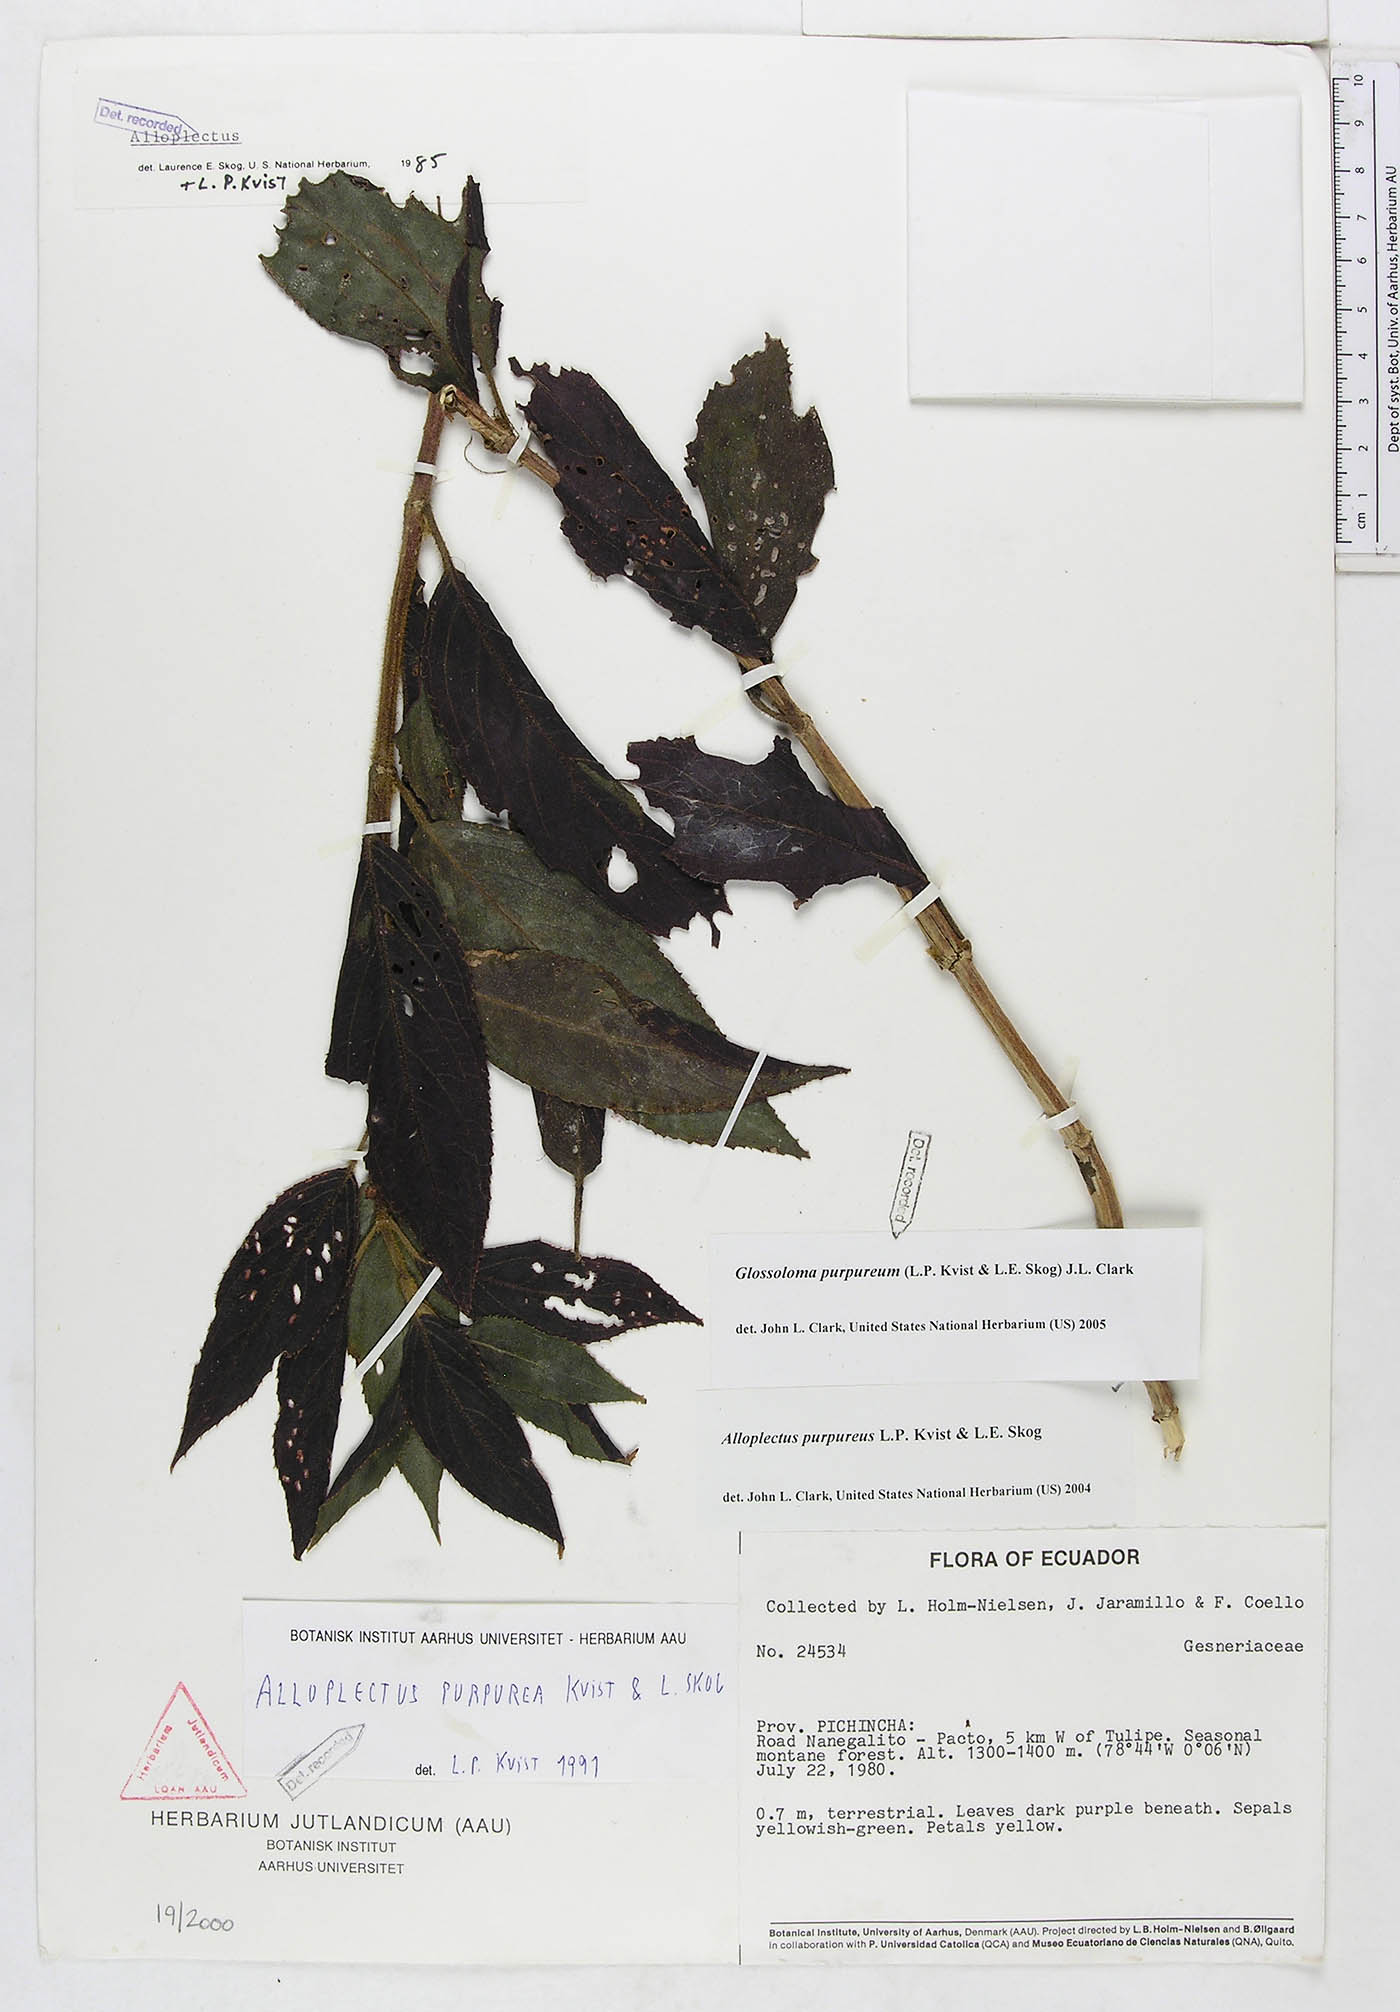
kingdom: Plantae
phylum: Tracheophyta
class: Magnoliopsida
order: Lamiales
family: Gesneriaceae
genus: Glossoloma
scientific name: Glossoloma purpureum
